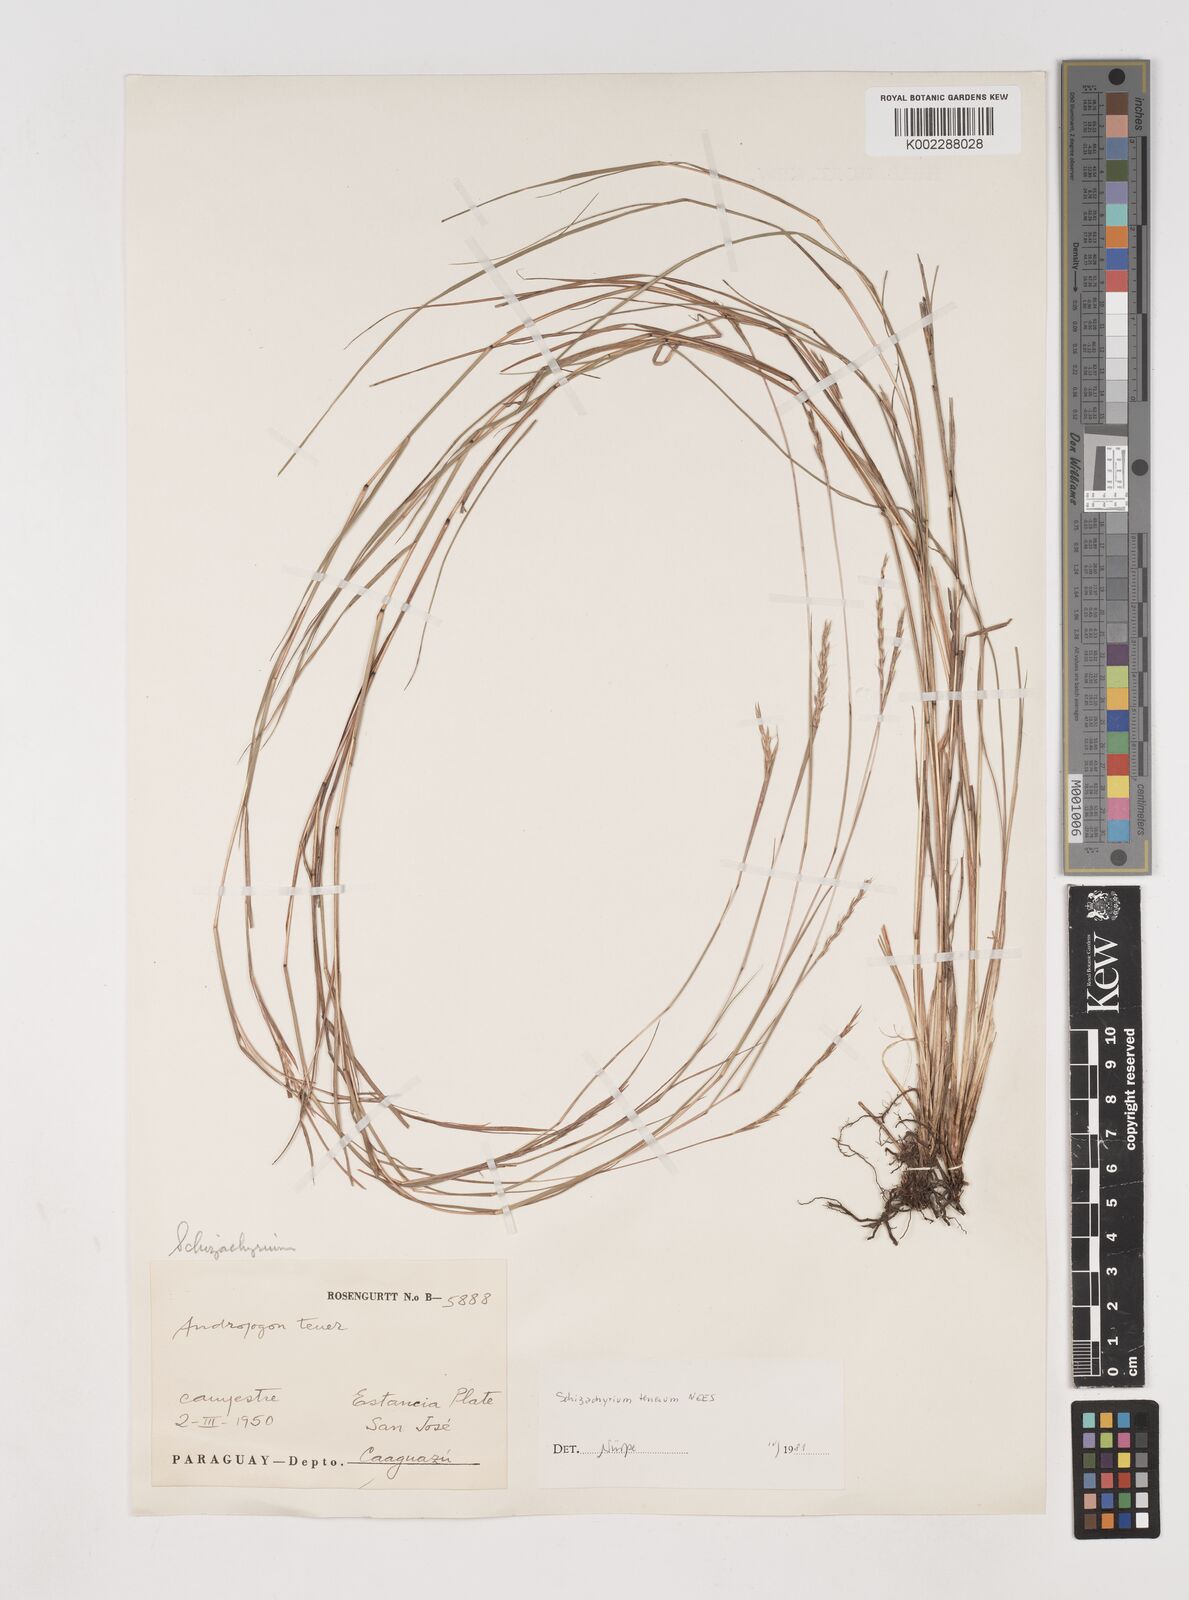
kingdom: Plantae
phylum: Tracheophyta
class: Liliopsida
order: Poales
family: Poaceae
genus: Andropogon
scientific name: Andropogon tener
